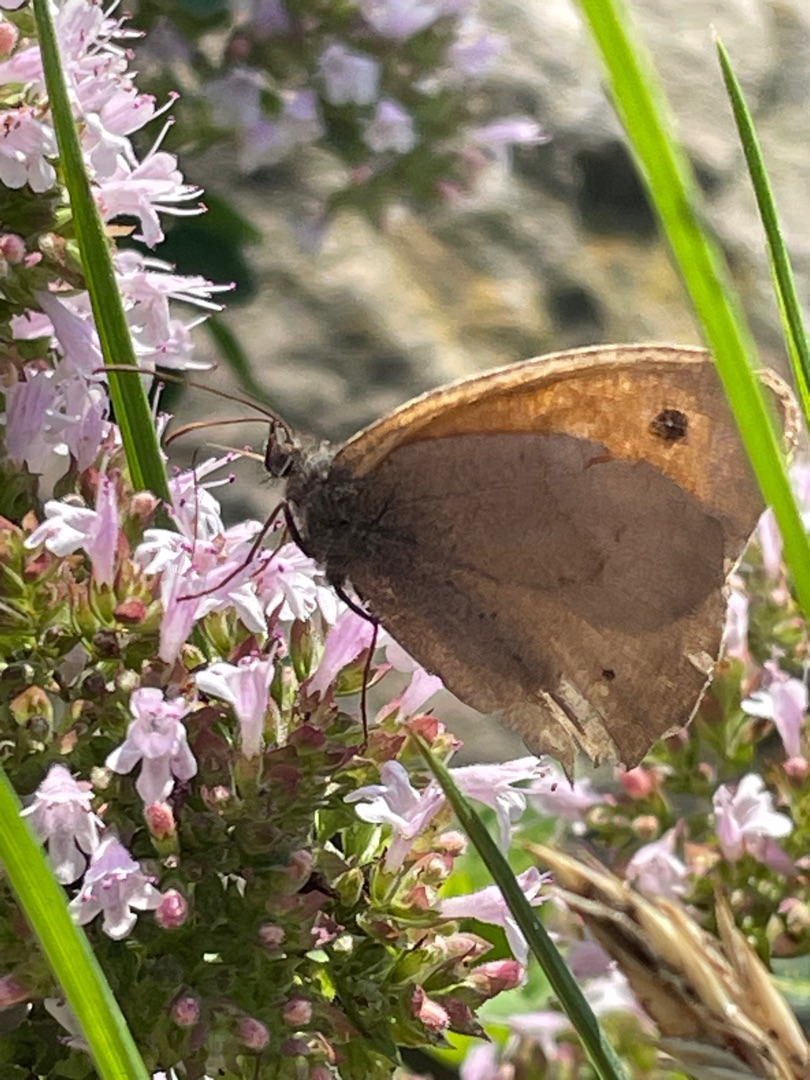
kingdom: Animalia
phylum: Arthropoda
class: Insecta
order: Lepidoptera
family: Nymphalidae
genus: Maniola
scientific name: Maniola jurtina
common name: Græsrandøje
